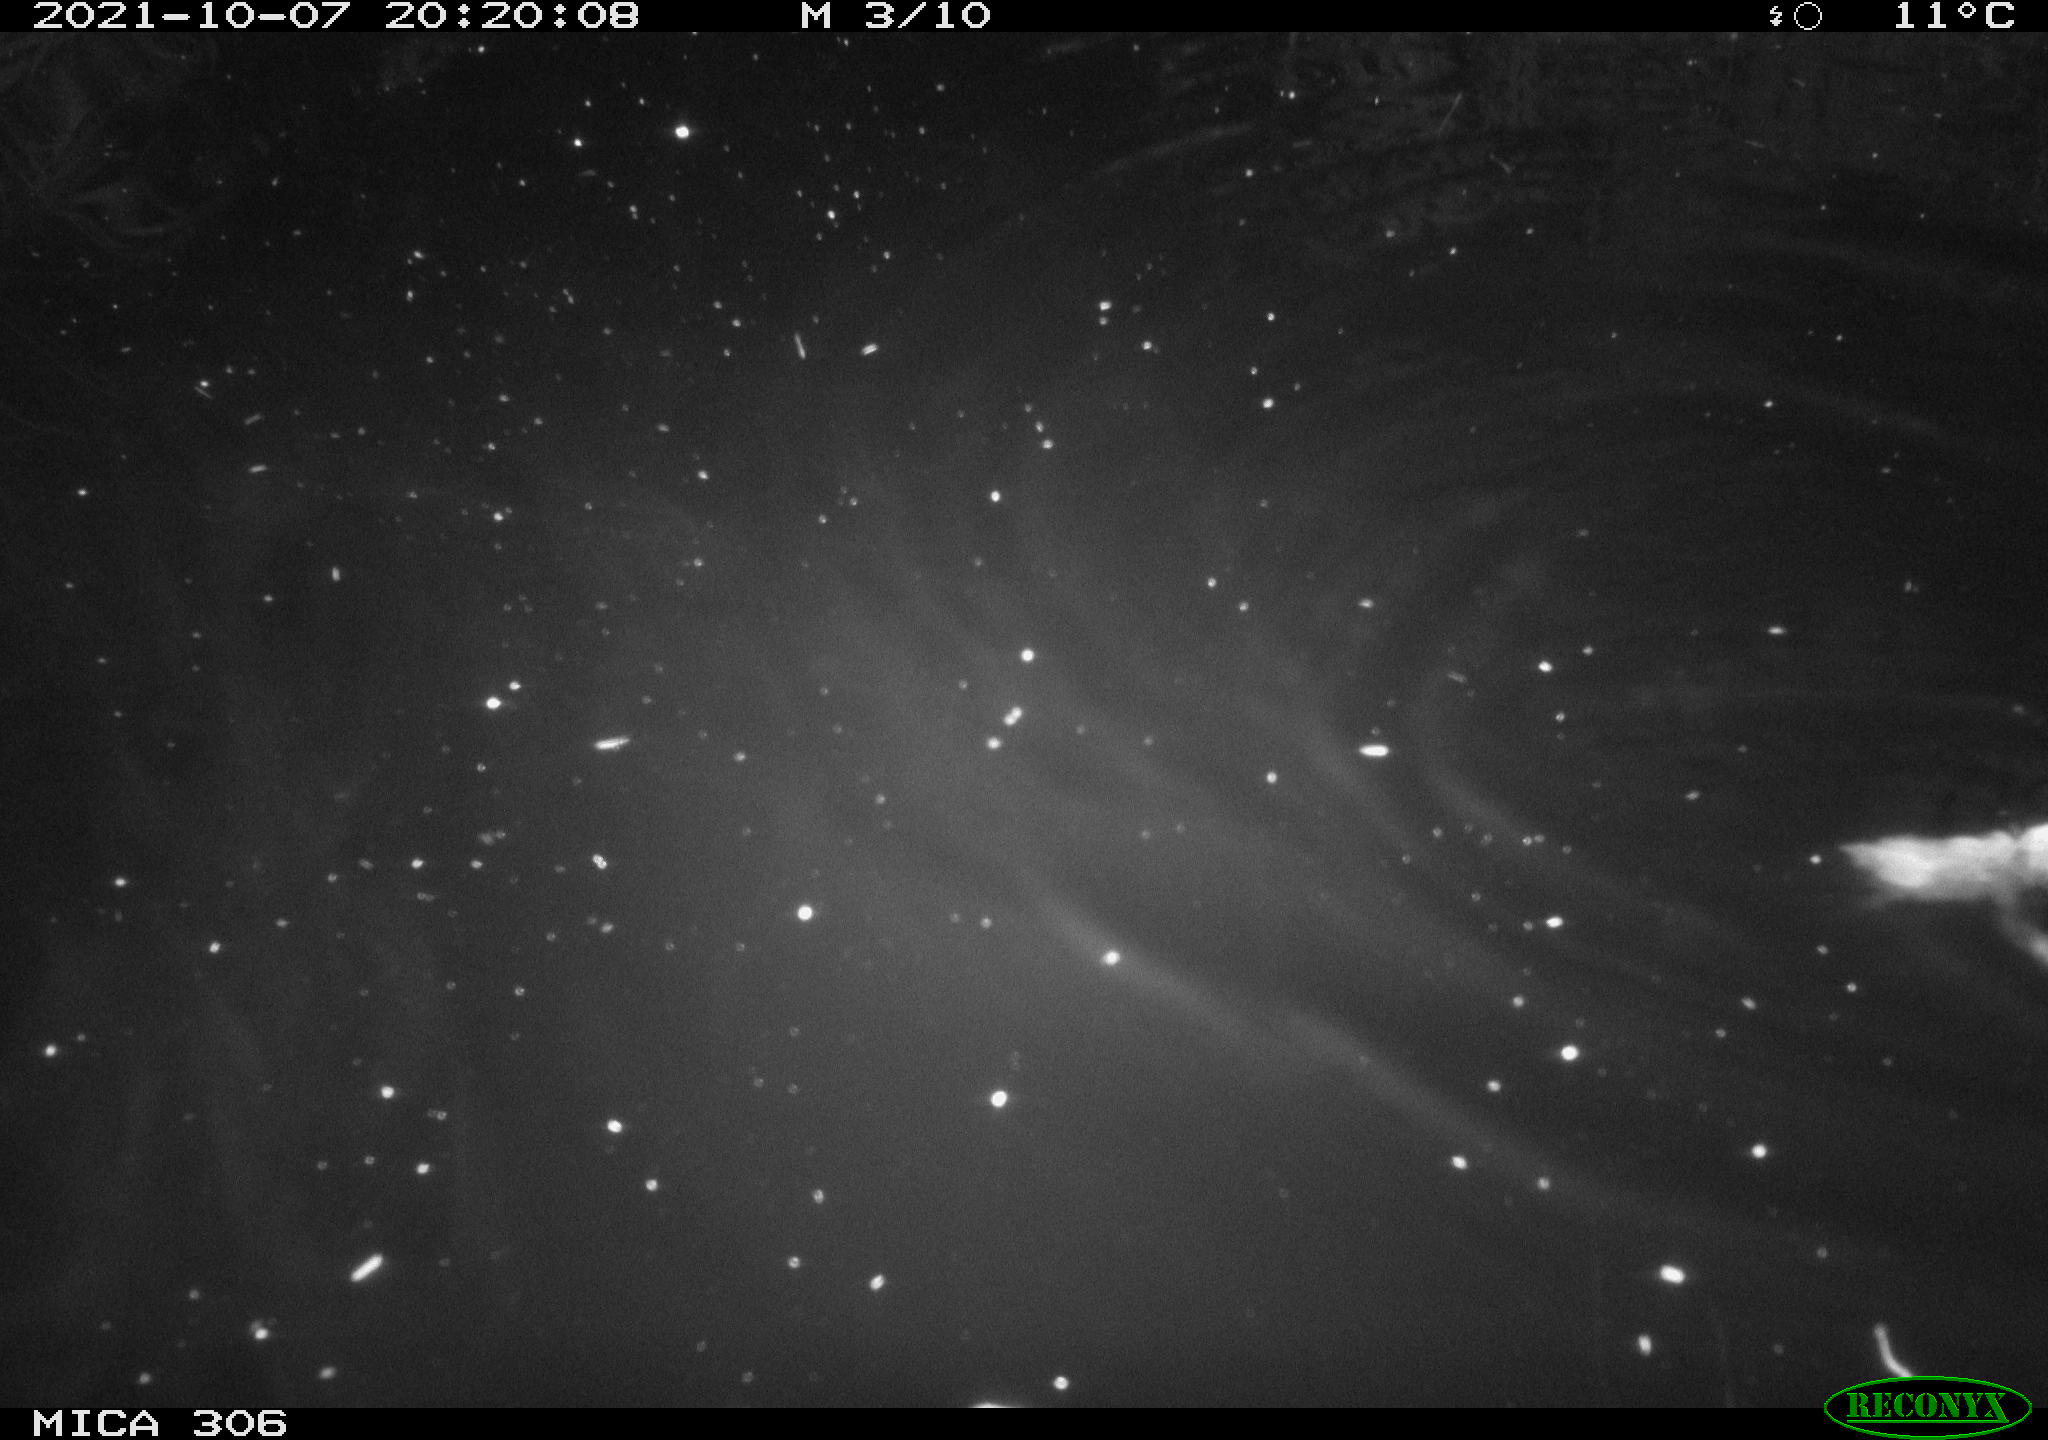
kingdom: Animalia
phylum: Chordata
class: Mammalia
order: Rodentia
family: Cricetidae
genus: Ondatra
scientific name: Ondatra zibethicus
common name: Muskrat
